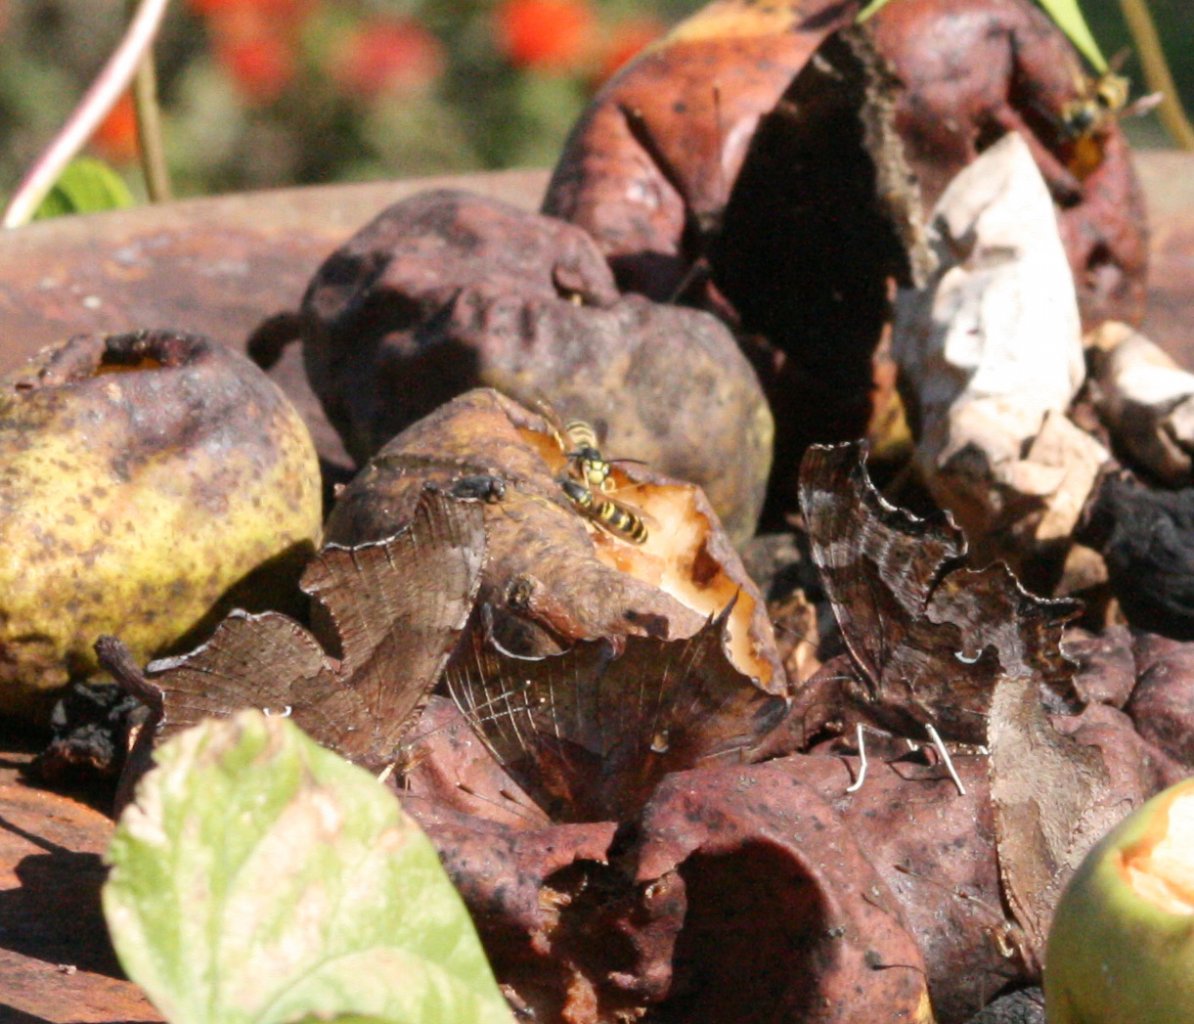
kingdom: Animalia
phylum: Arthropoda
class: Insecta
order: Lepidoptera
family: Nymphalidae
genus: Polygonia
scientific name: Polygonia interrogationis
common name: Question Mark
